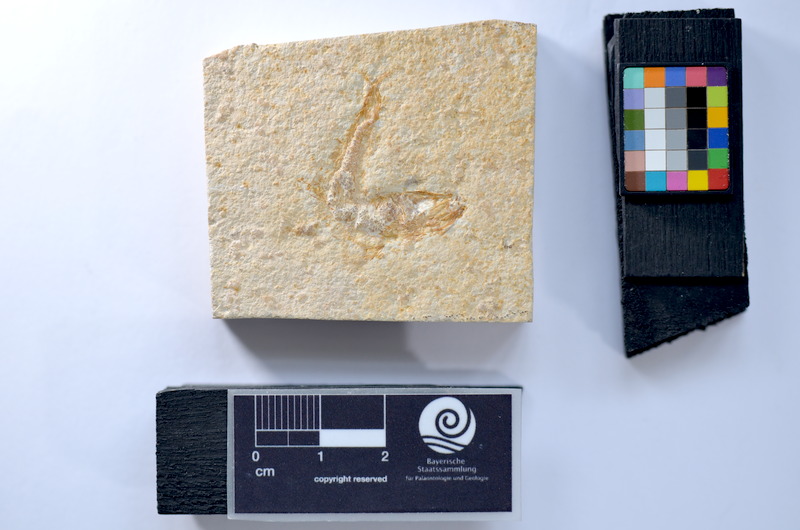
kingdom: Animalia
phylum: Chordata
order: Salmoniformes
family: Orthogonikleithridae
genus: Leptolepides
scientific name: Leptolepides
